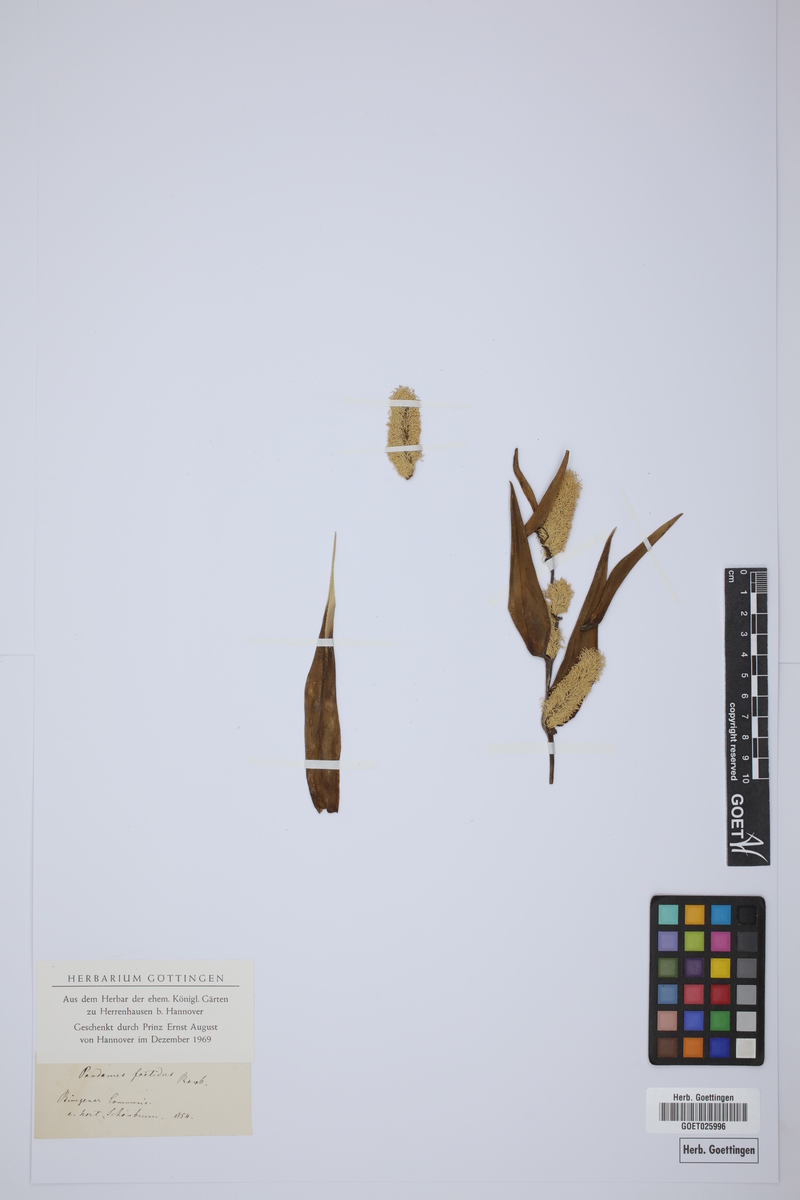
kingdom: Plantae
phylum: Tracheophyta
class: Liliopsida
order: Pandanales
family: Pandanaceae
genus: Benstonea
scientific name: Benstonea foetida
